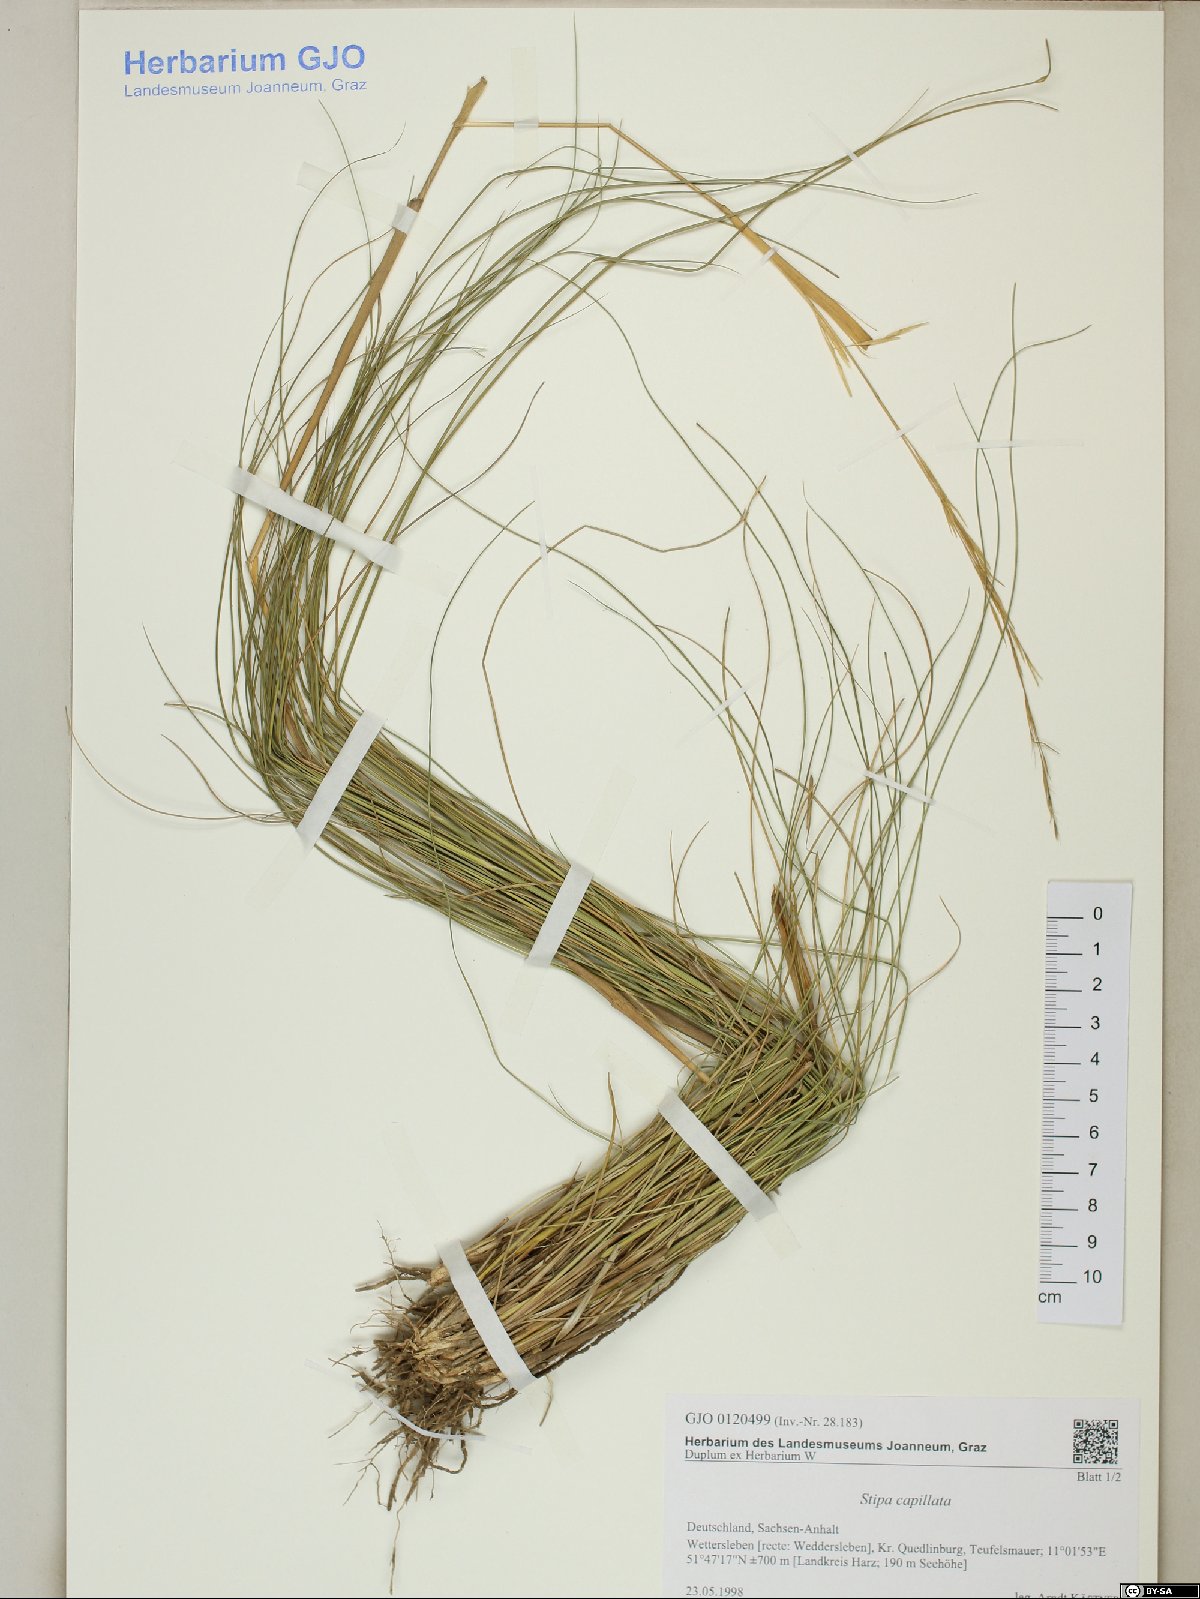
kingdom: Plantae
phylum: Tracheophyta
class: Liliopsida
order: Poales
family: Poaceae
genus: Stipa
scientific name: Stipa capillata
